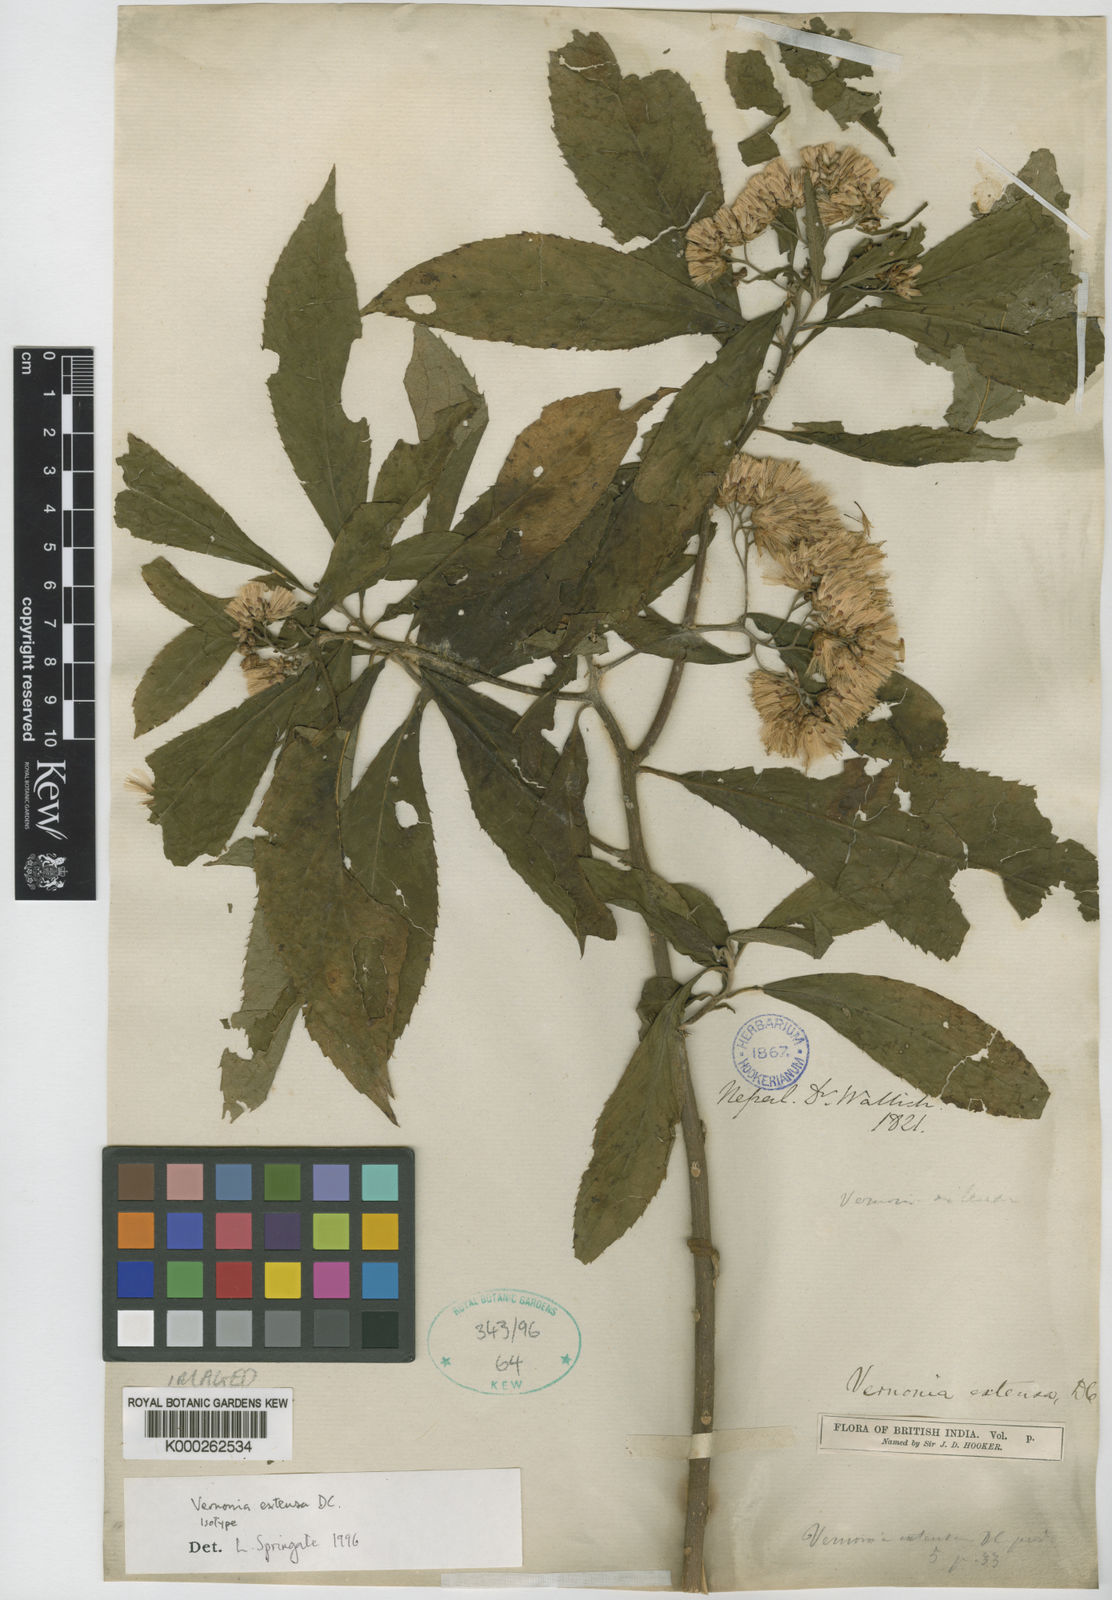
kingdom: Plantae
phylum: Tracheophyta
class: Magnoliopsida
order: Asterales
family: Asteraceae
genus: Gymnanthemum
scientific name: Gymnanthemum extensum
